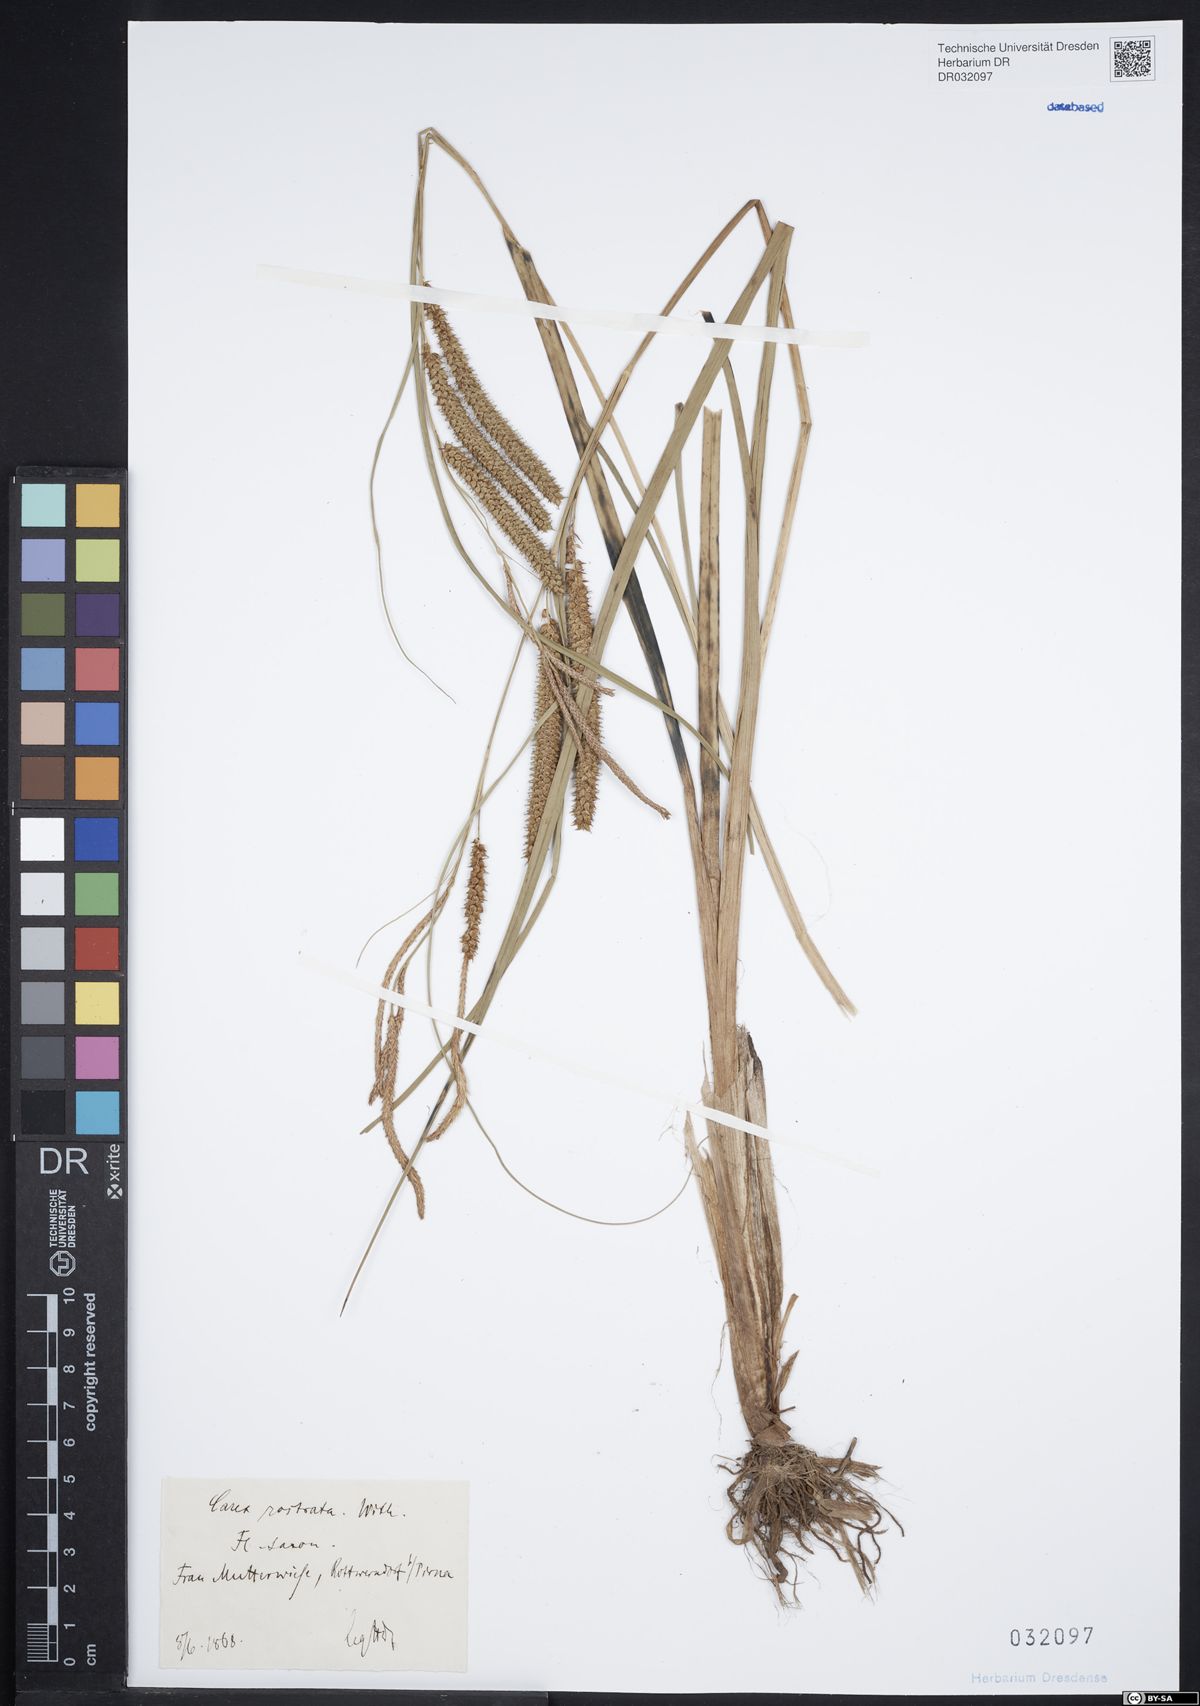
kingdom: Plantae
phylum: Tracheophyta
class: Liliopsida
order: Poales
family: Cyperaceae
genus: Carex
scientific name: Carex rostrata
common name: Bottle sedge
